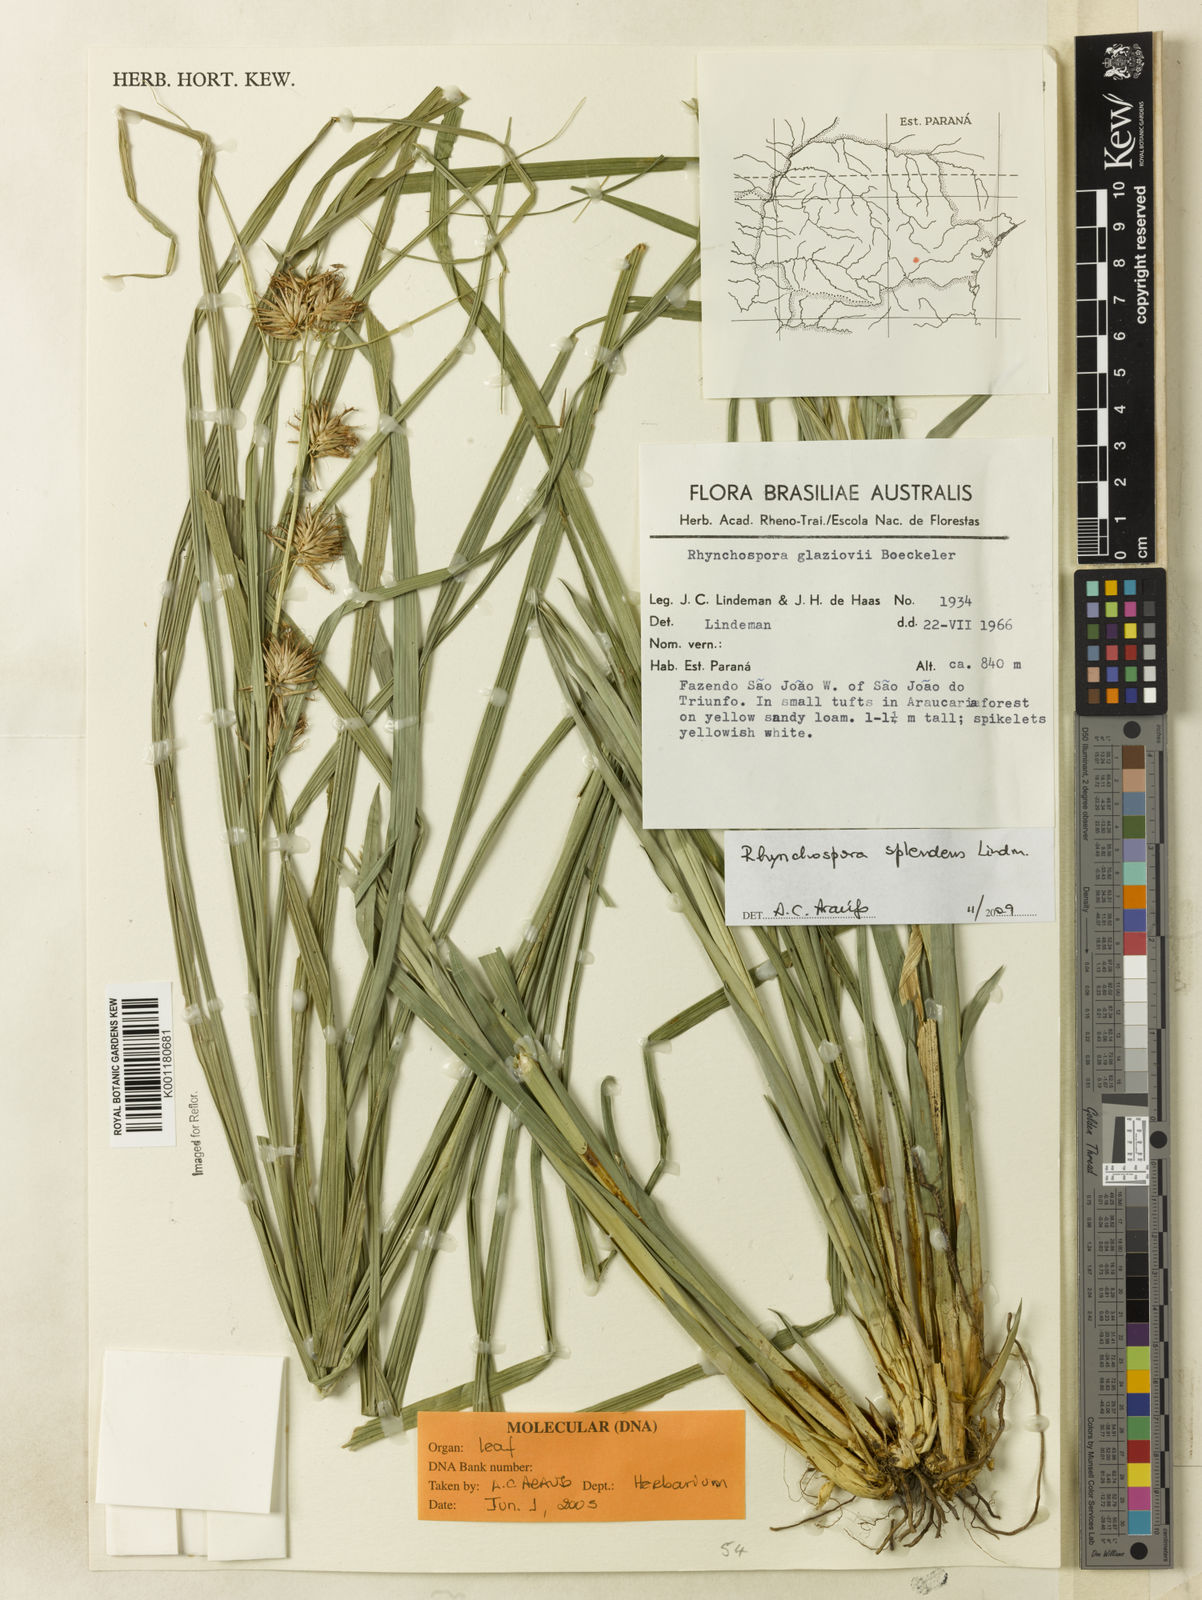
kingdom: Plantae
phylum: Tracheophyta
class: Liliopsida
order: Poales
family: Cyperaceae
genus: Rhynchospora
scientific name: Rhynchospora splendens
